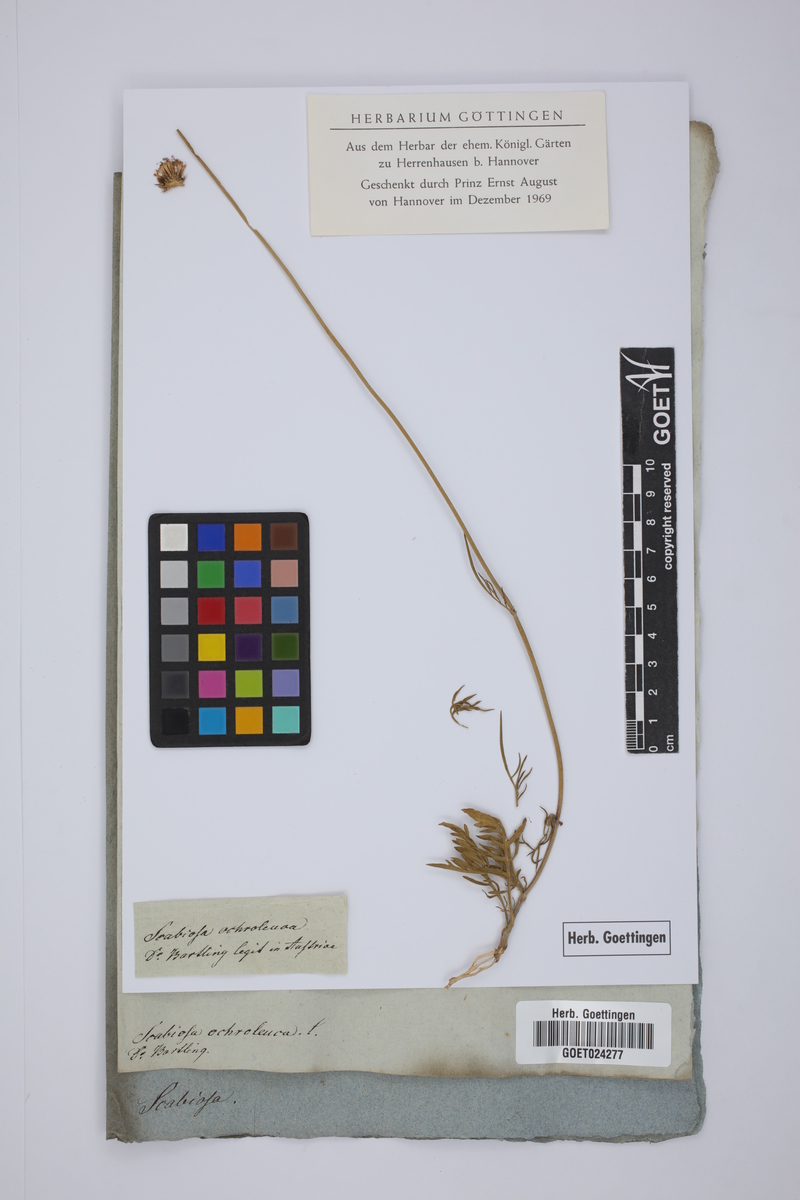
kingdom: Plantae
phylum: Tracheophyta
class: Magnoliopsida
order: Dipsacales
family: Caprifoliaceae
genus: Scabiosa
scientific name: Scabiosa ochroleuca
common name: Cream pincushions
